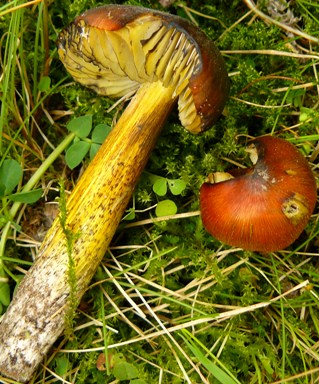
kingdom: Fungi
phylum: Basidiomycota
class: Agaricomycetes
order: Agaricales
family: Hygrophoraceae
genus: Hygrocybe
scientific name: Hygrocybe conica
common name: kegle-vokshat
